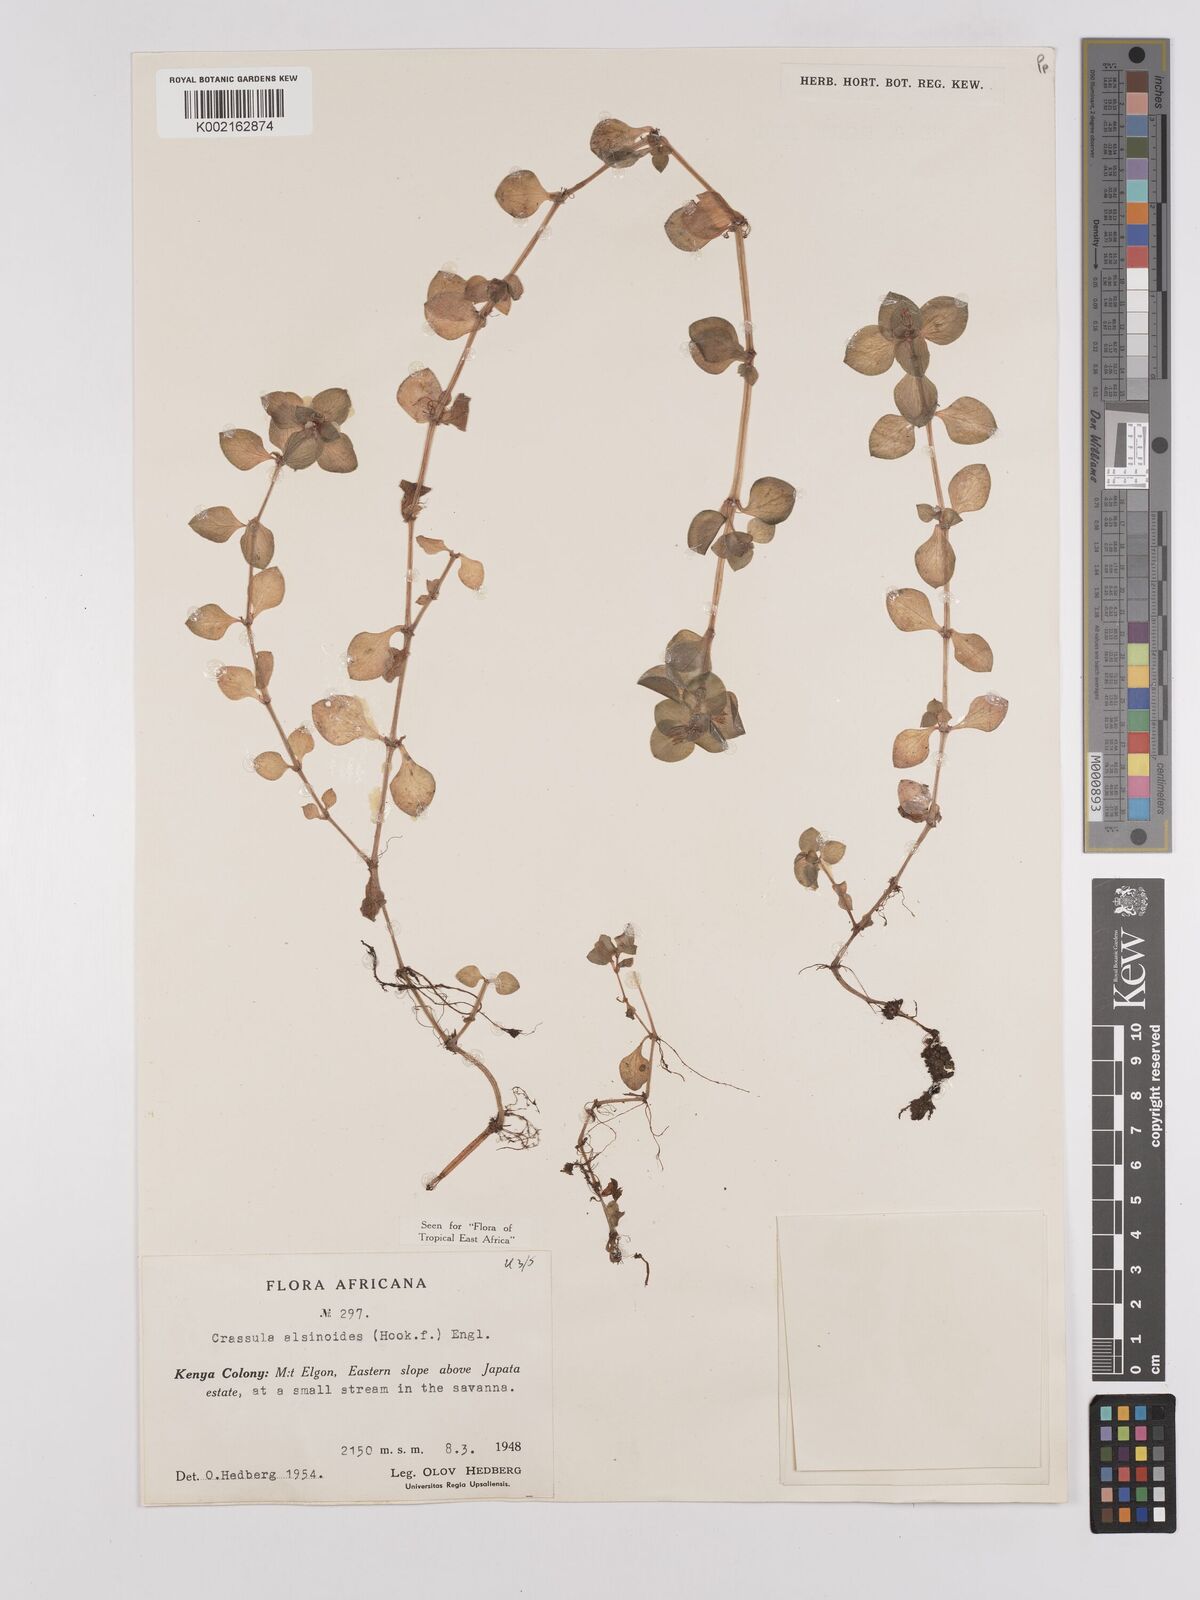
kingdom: Plantae
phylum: Tracheophyta
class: Magnoliopsida
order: Saxifragales
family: Crassulaceae
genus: Crassula
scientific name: Crassula alsinoides
